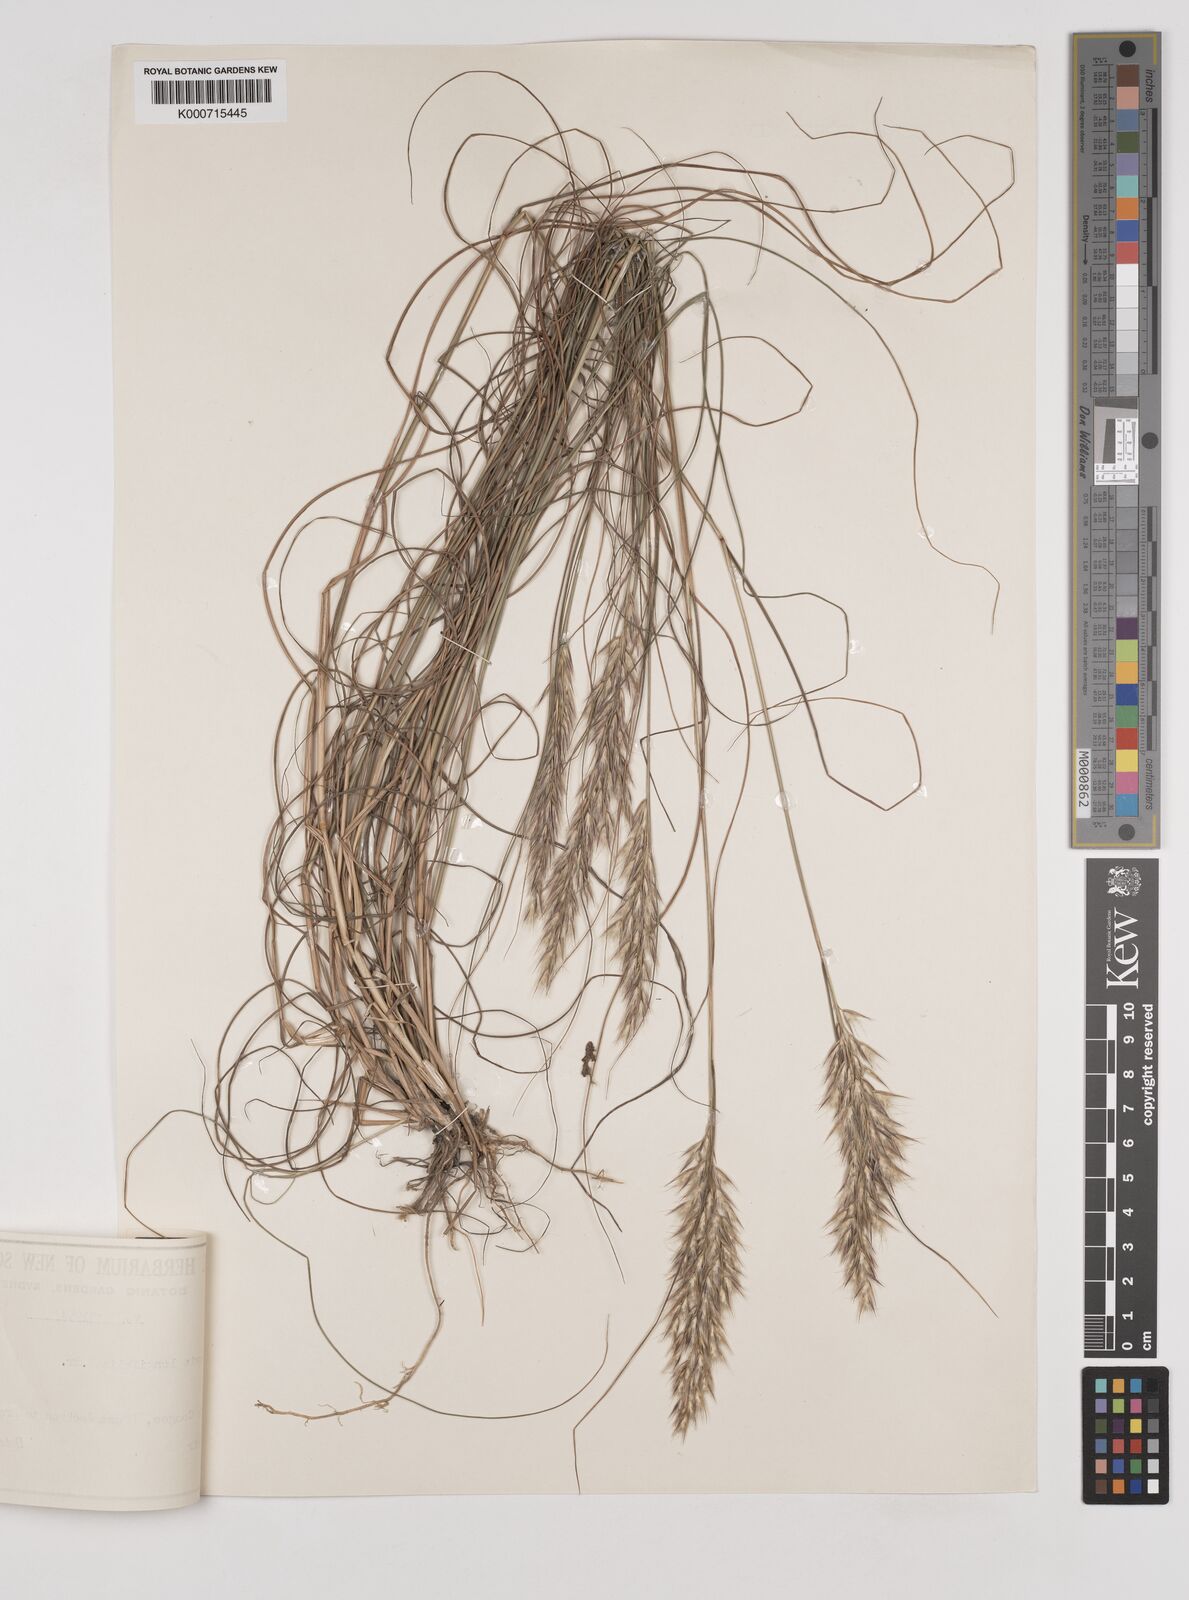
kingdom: Plantae
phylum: Tracheophyta
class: Liliopsida
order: Poales
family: Poaceae
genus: Rytidosperma
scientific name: Rytidosperma longifolium
